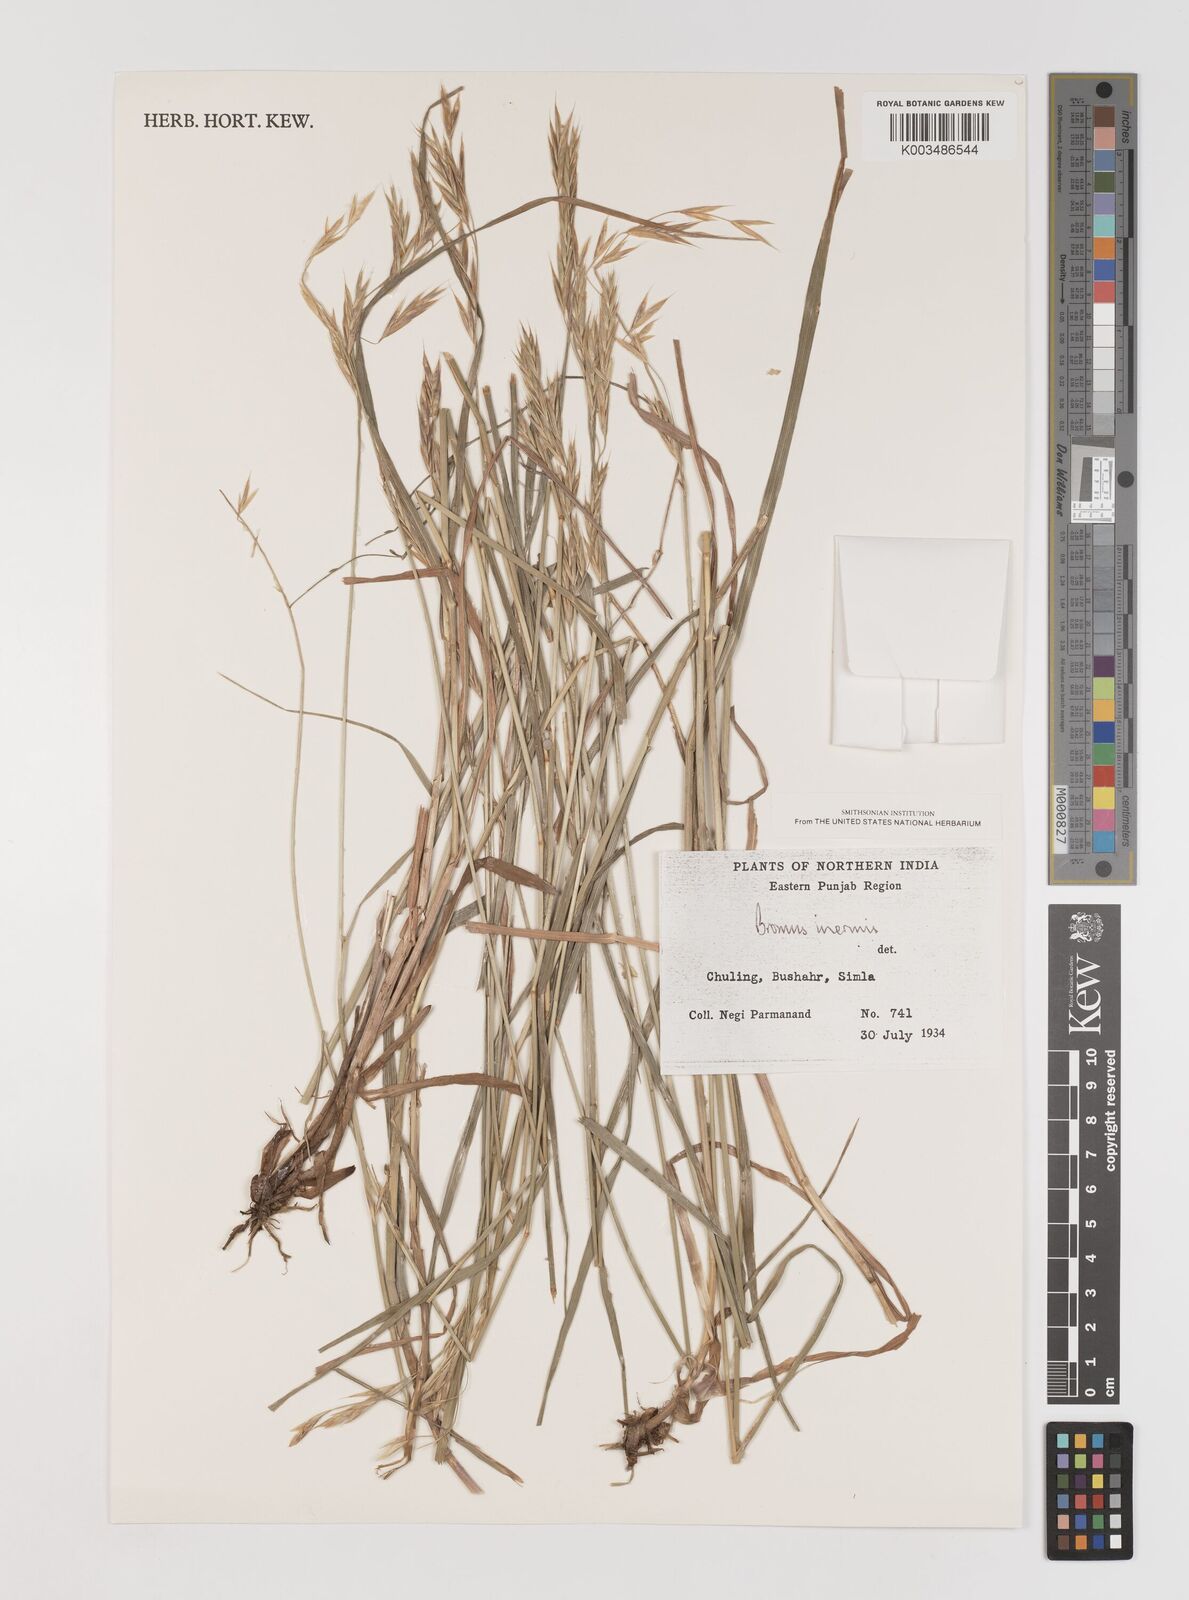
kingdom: Plantae
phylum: Tracheophyta
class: Liliopsida
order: Poales
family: Poaceae
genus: Bromus
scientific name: Bromus inermis
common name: Smooth brome
